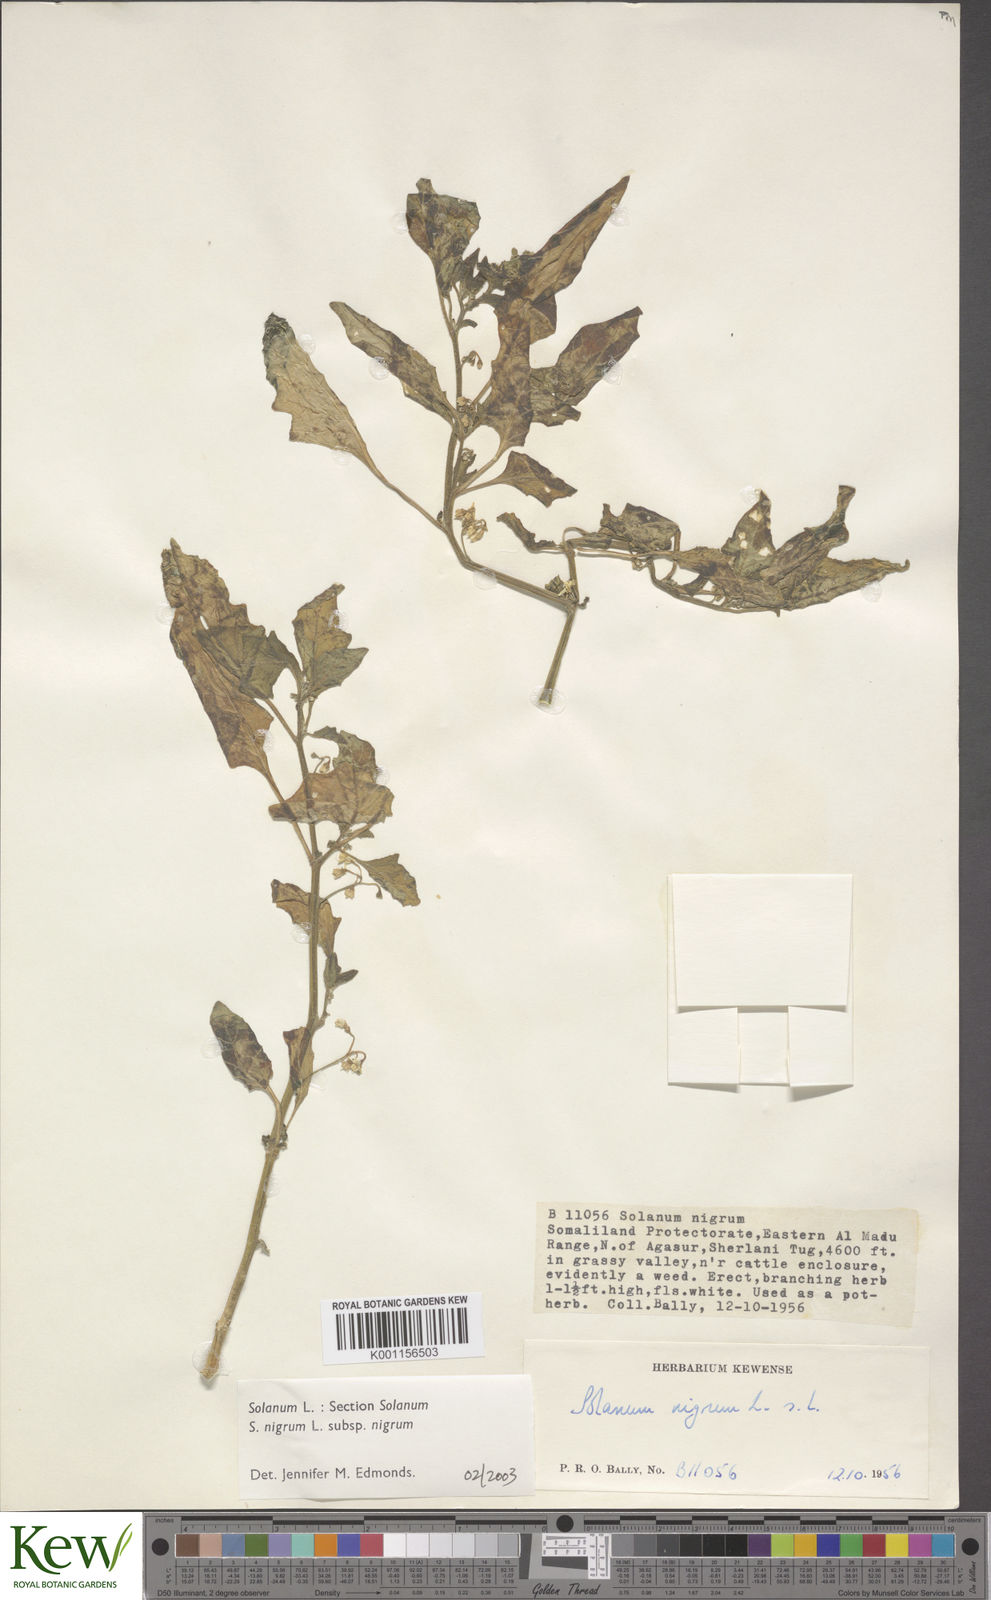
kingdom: Plantae
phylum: Tracheophyta
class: Magnoliopsida
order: Solanales
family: Solanaceae
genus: Solanum
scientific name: Solanum villosum
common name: Red nightshade
